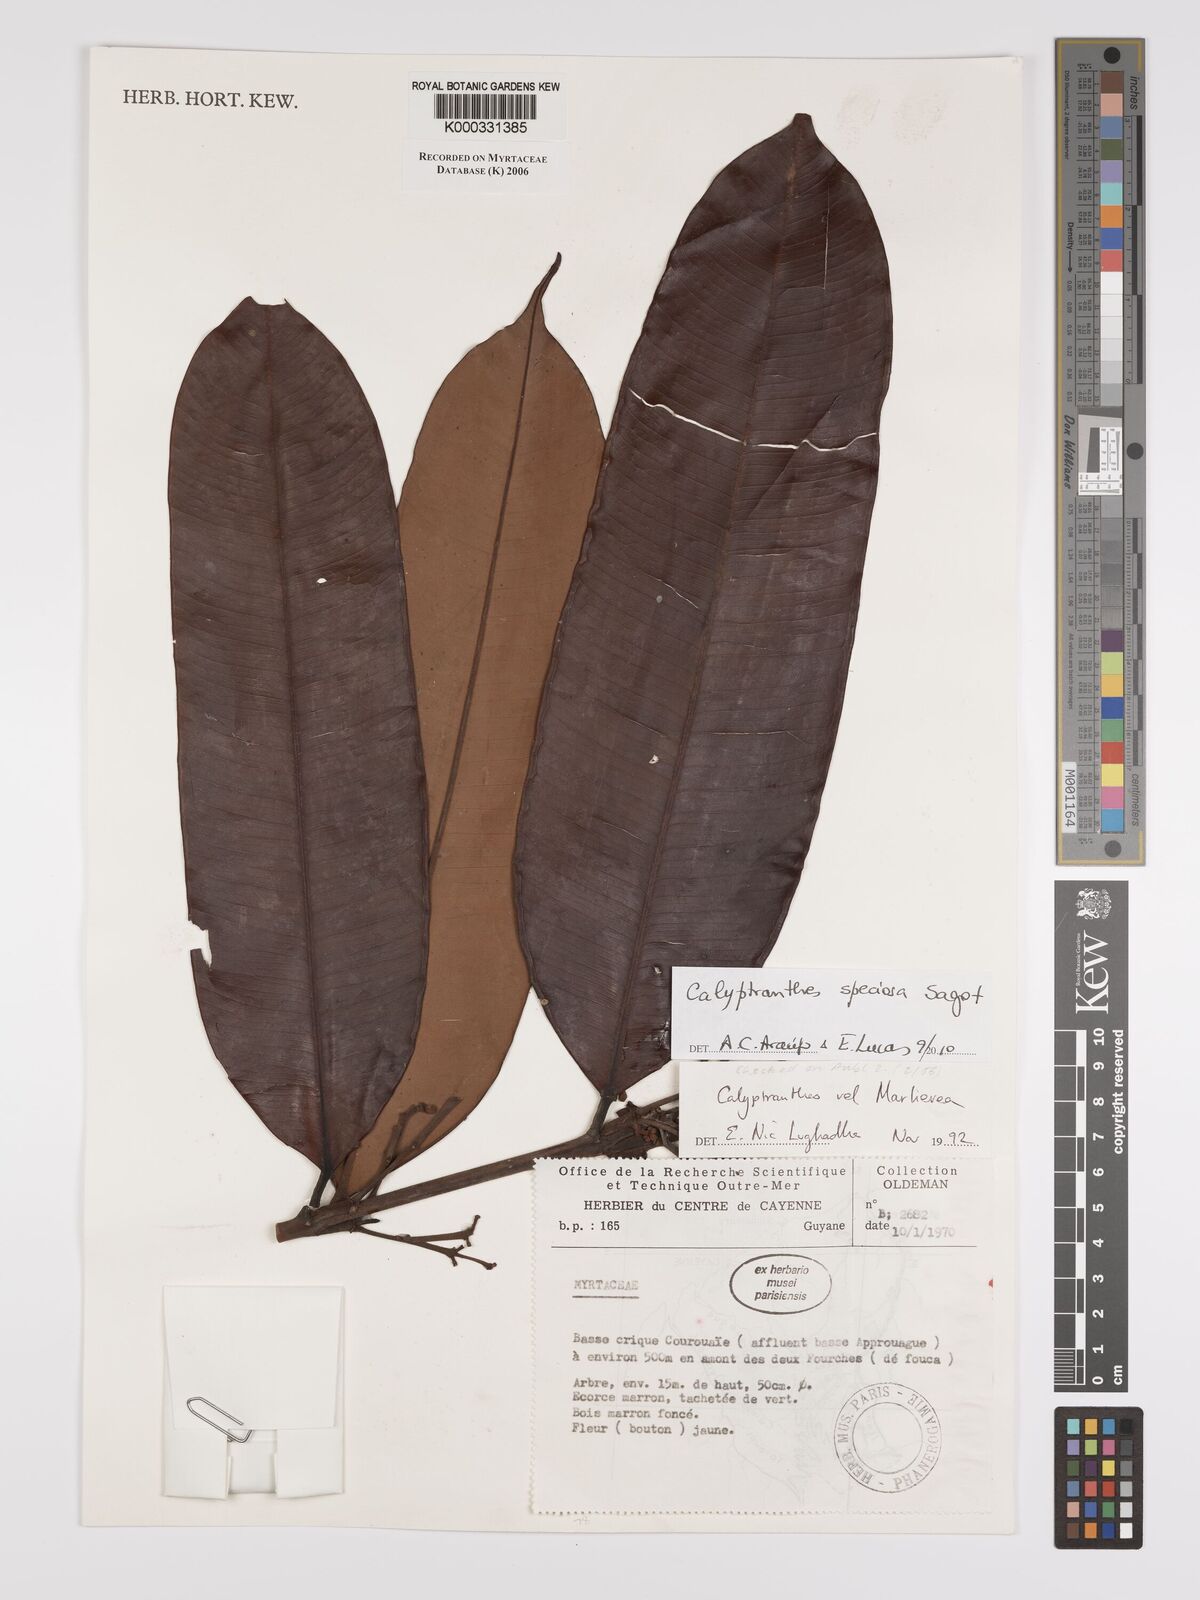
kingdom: Plantae
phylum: Tracheophyta
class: Magnoliopsida
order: Myrtales
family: Myrtaceae
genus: Calyptranthes
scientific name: Calyptranthes
